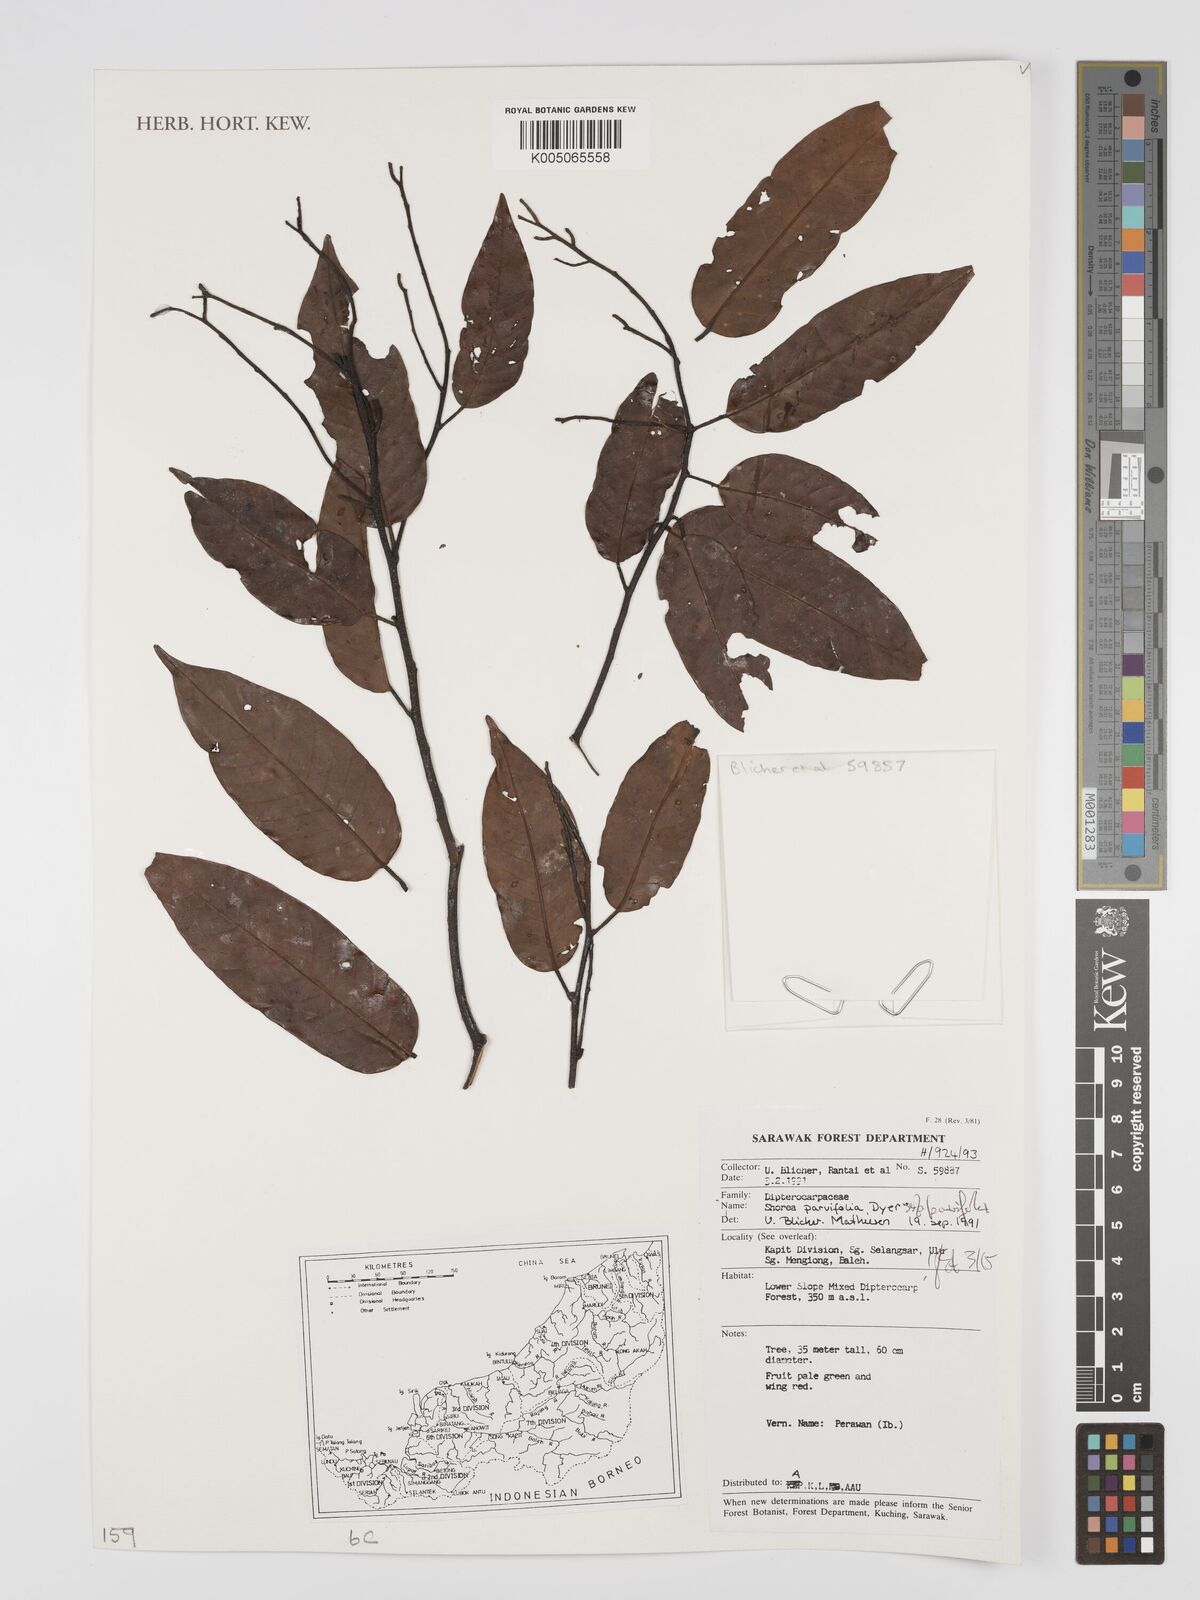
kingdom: Plantae
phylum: Tracheophyta
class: Magnoliopsida
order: Malvales
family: Dipterocarpaceae
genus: Shorea
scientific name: Shorea parvifolia
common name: Light red meranti
